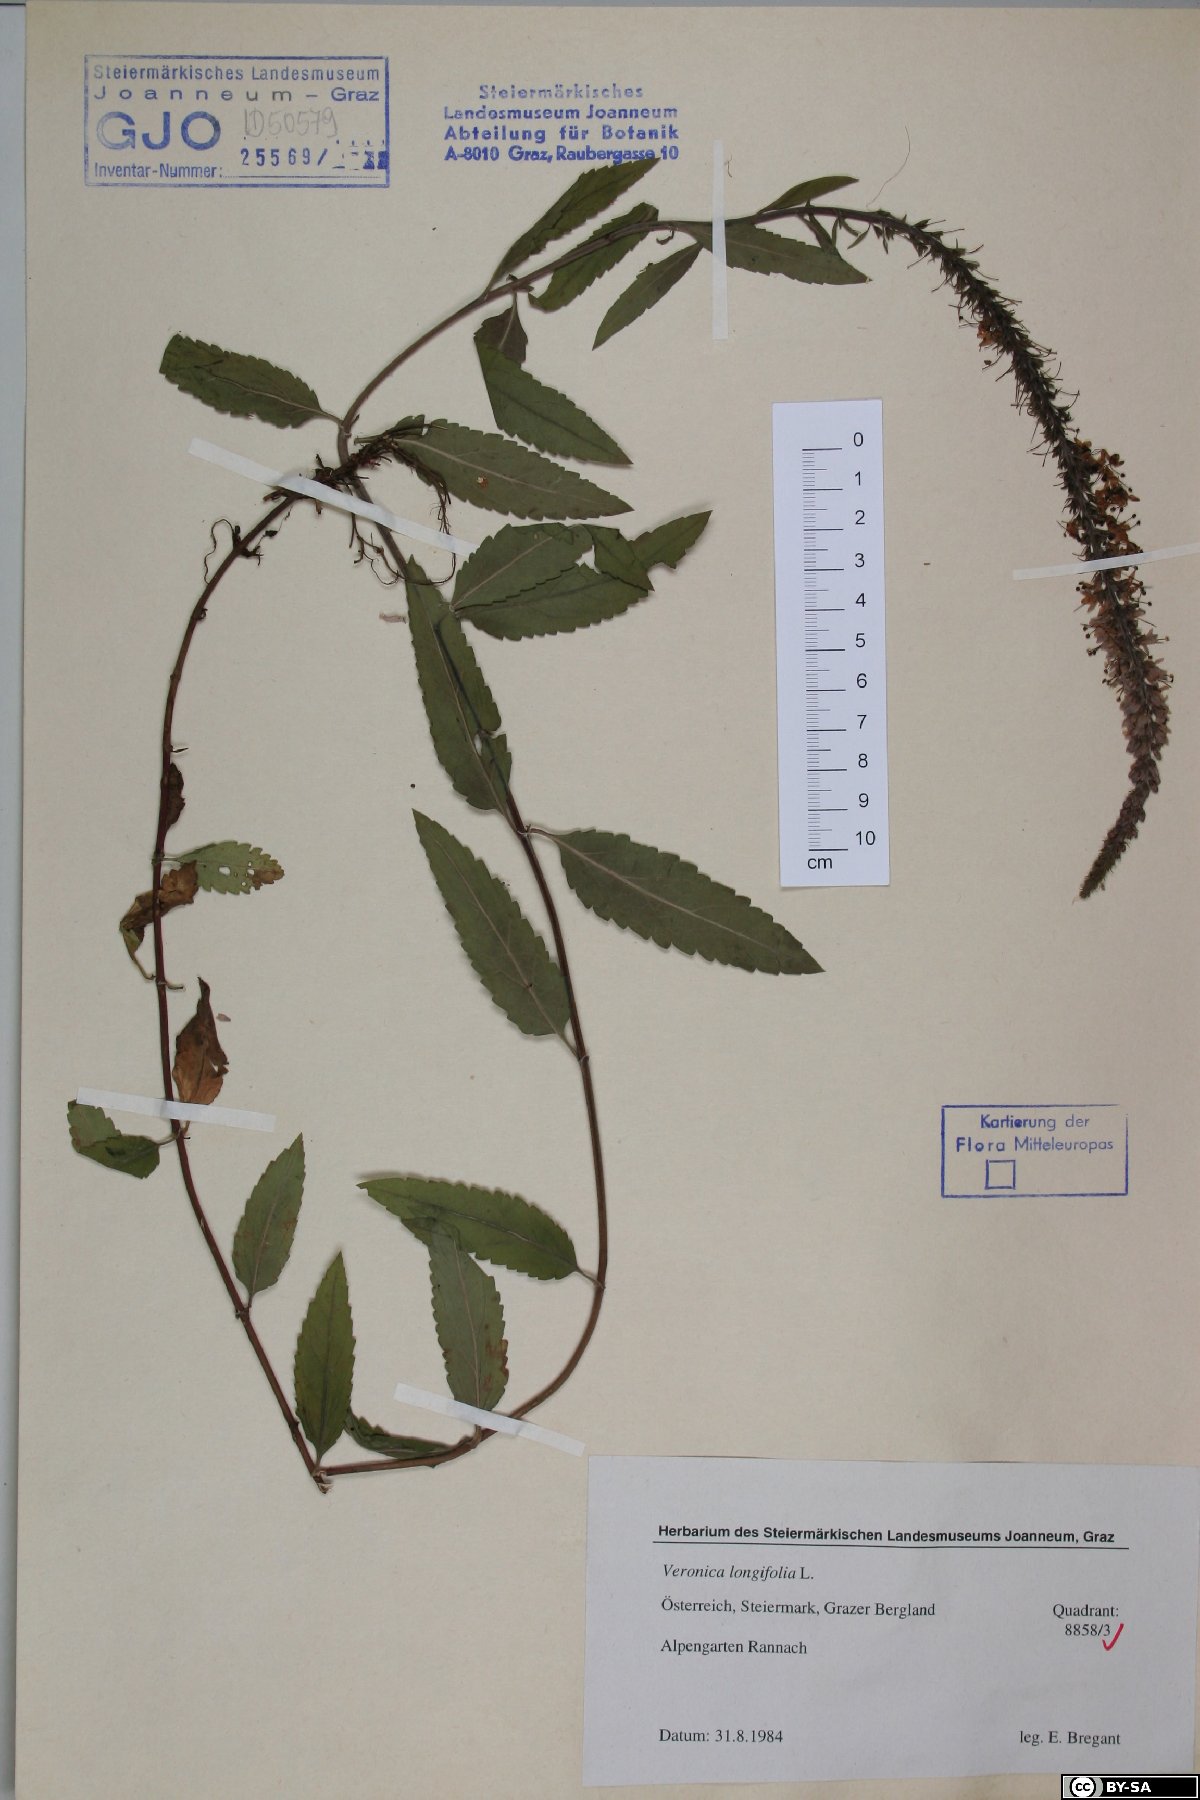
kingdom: Plantae
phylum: Tracheophyta
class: Magnoliopsida
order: Lamiales
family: Plantaginaceae
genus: Veronica
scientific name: Veronica longifolia
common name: Garden speedwell
